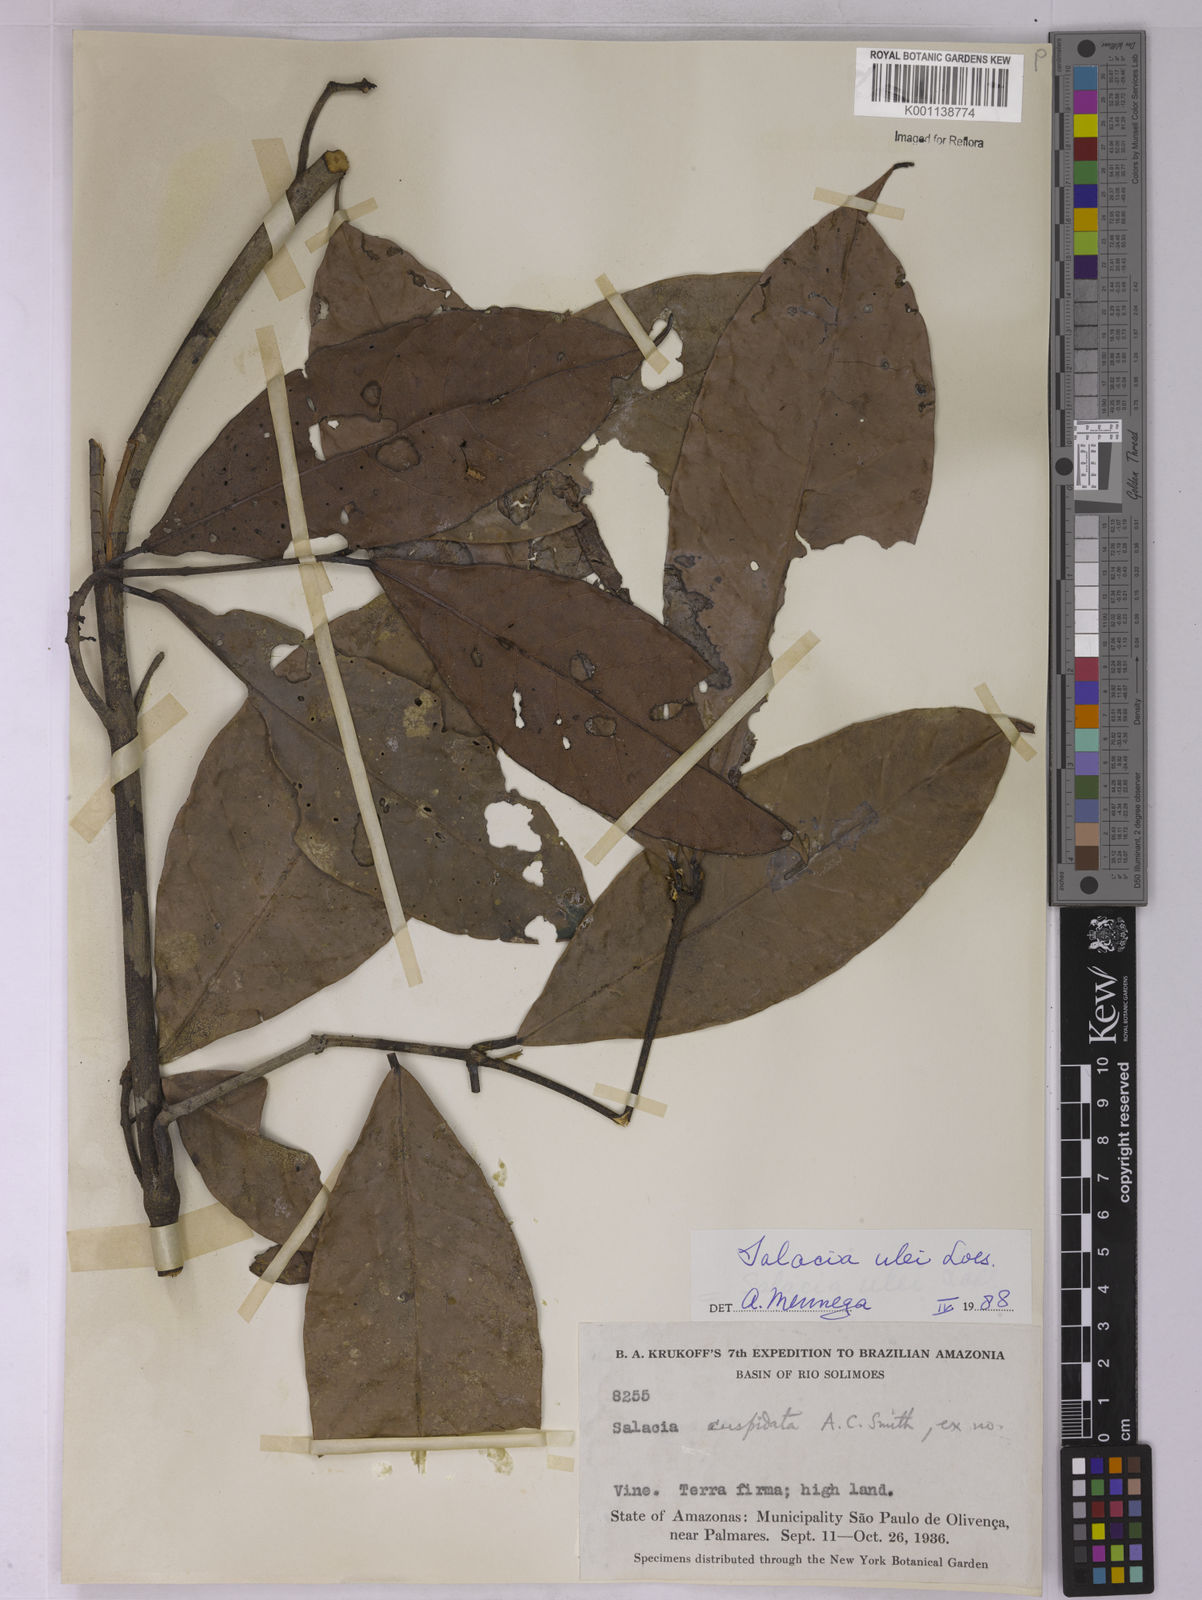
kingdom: Plantae
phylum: Tracheophyta
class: Magnoliopsida
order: Celastrales
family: Celastraceae
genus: Salacia
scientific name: Salacia ulei
